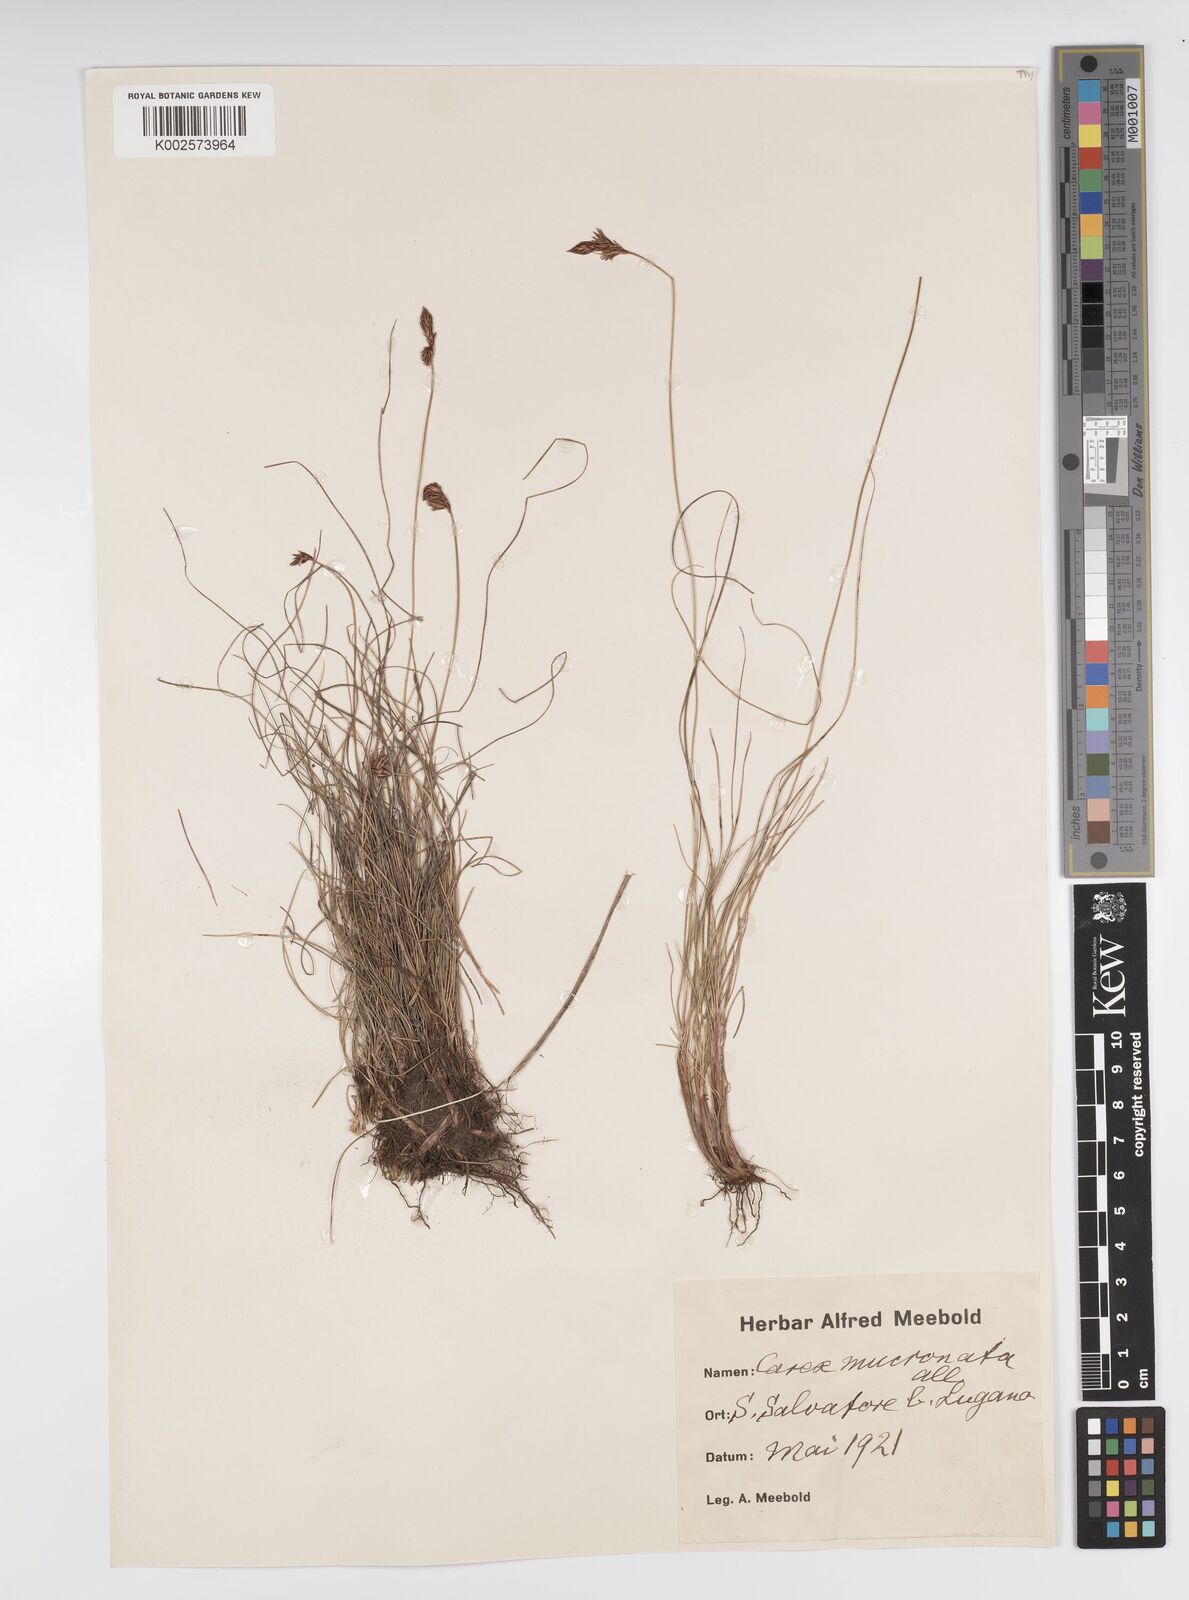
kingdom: Plantae
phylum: Tracheophyta
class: Liliopsida
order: Poales
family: Cyperaceae
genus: Carex
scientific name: Carex mucronata
